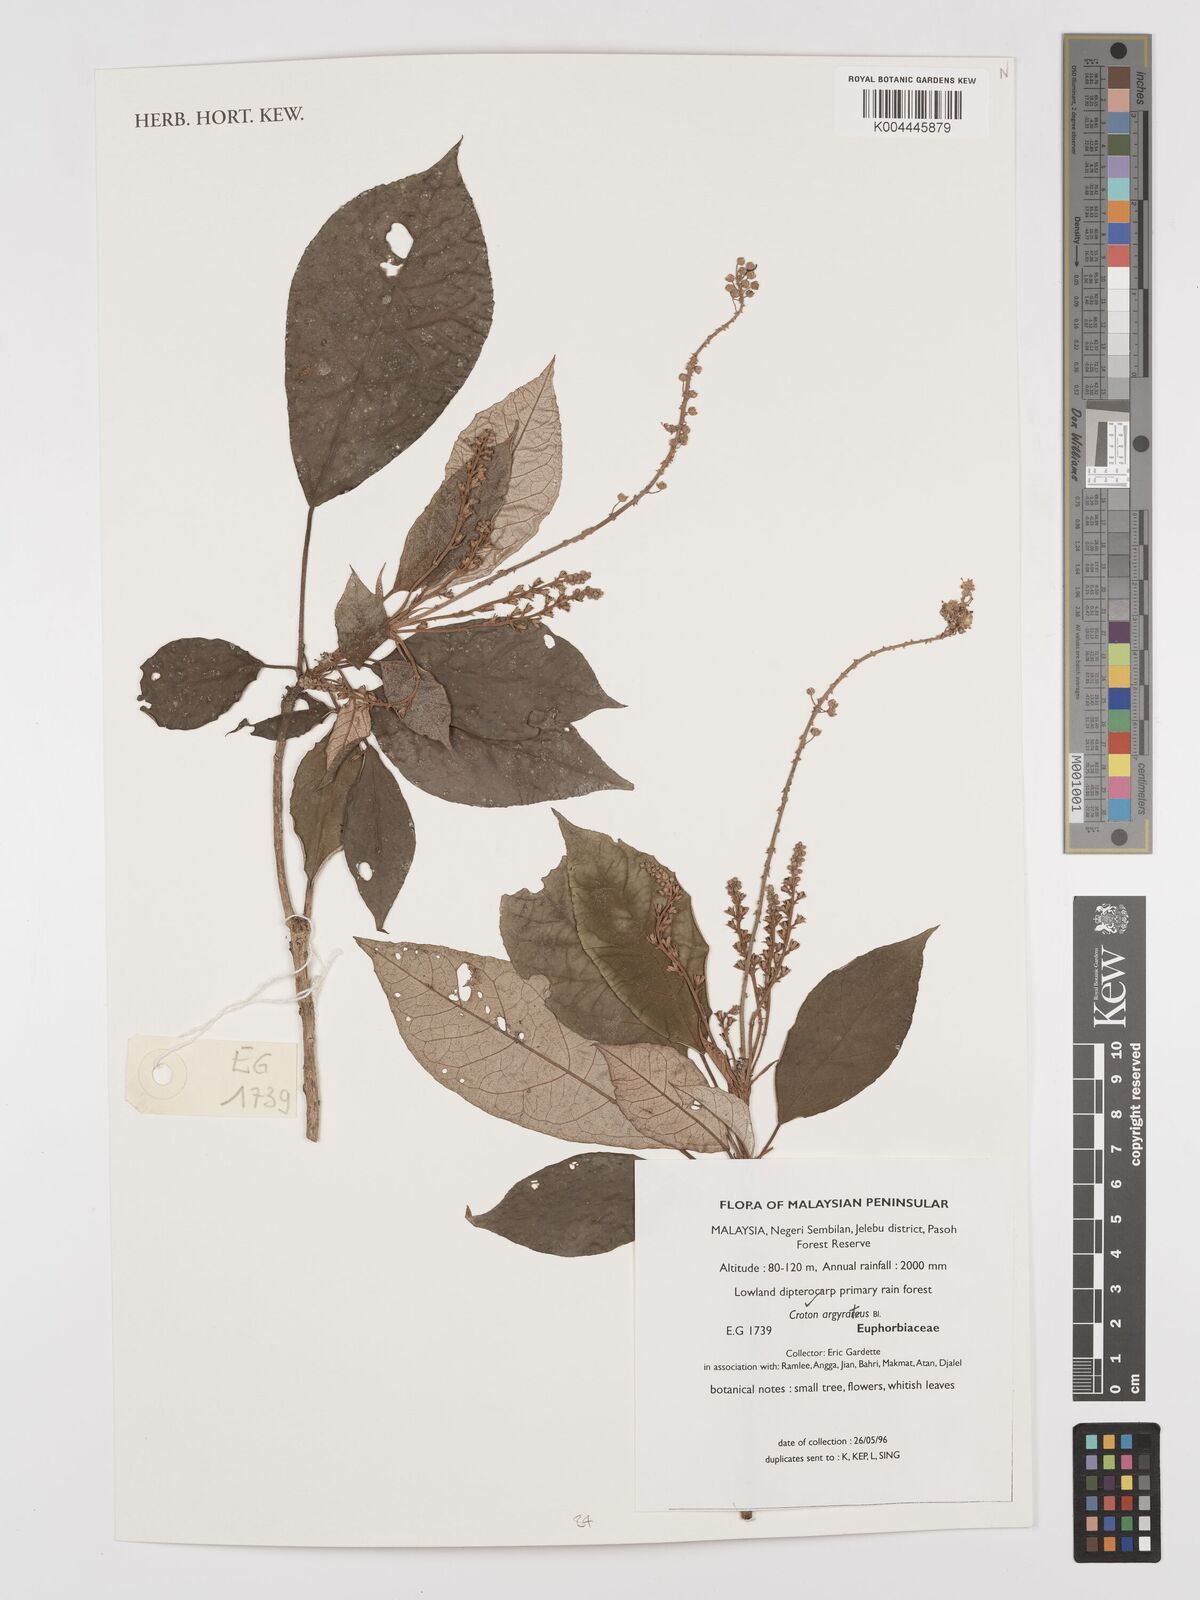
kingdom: Plantae
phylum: Tracheophyta
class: Magnoliopsida
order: Malpighiales
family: Euphorbiaceae
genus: Croton
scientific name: Croton argyratus
